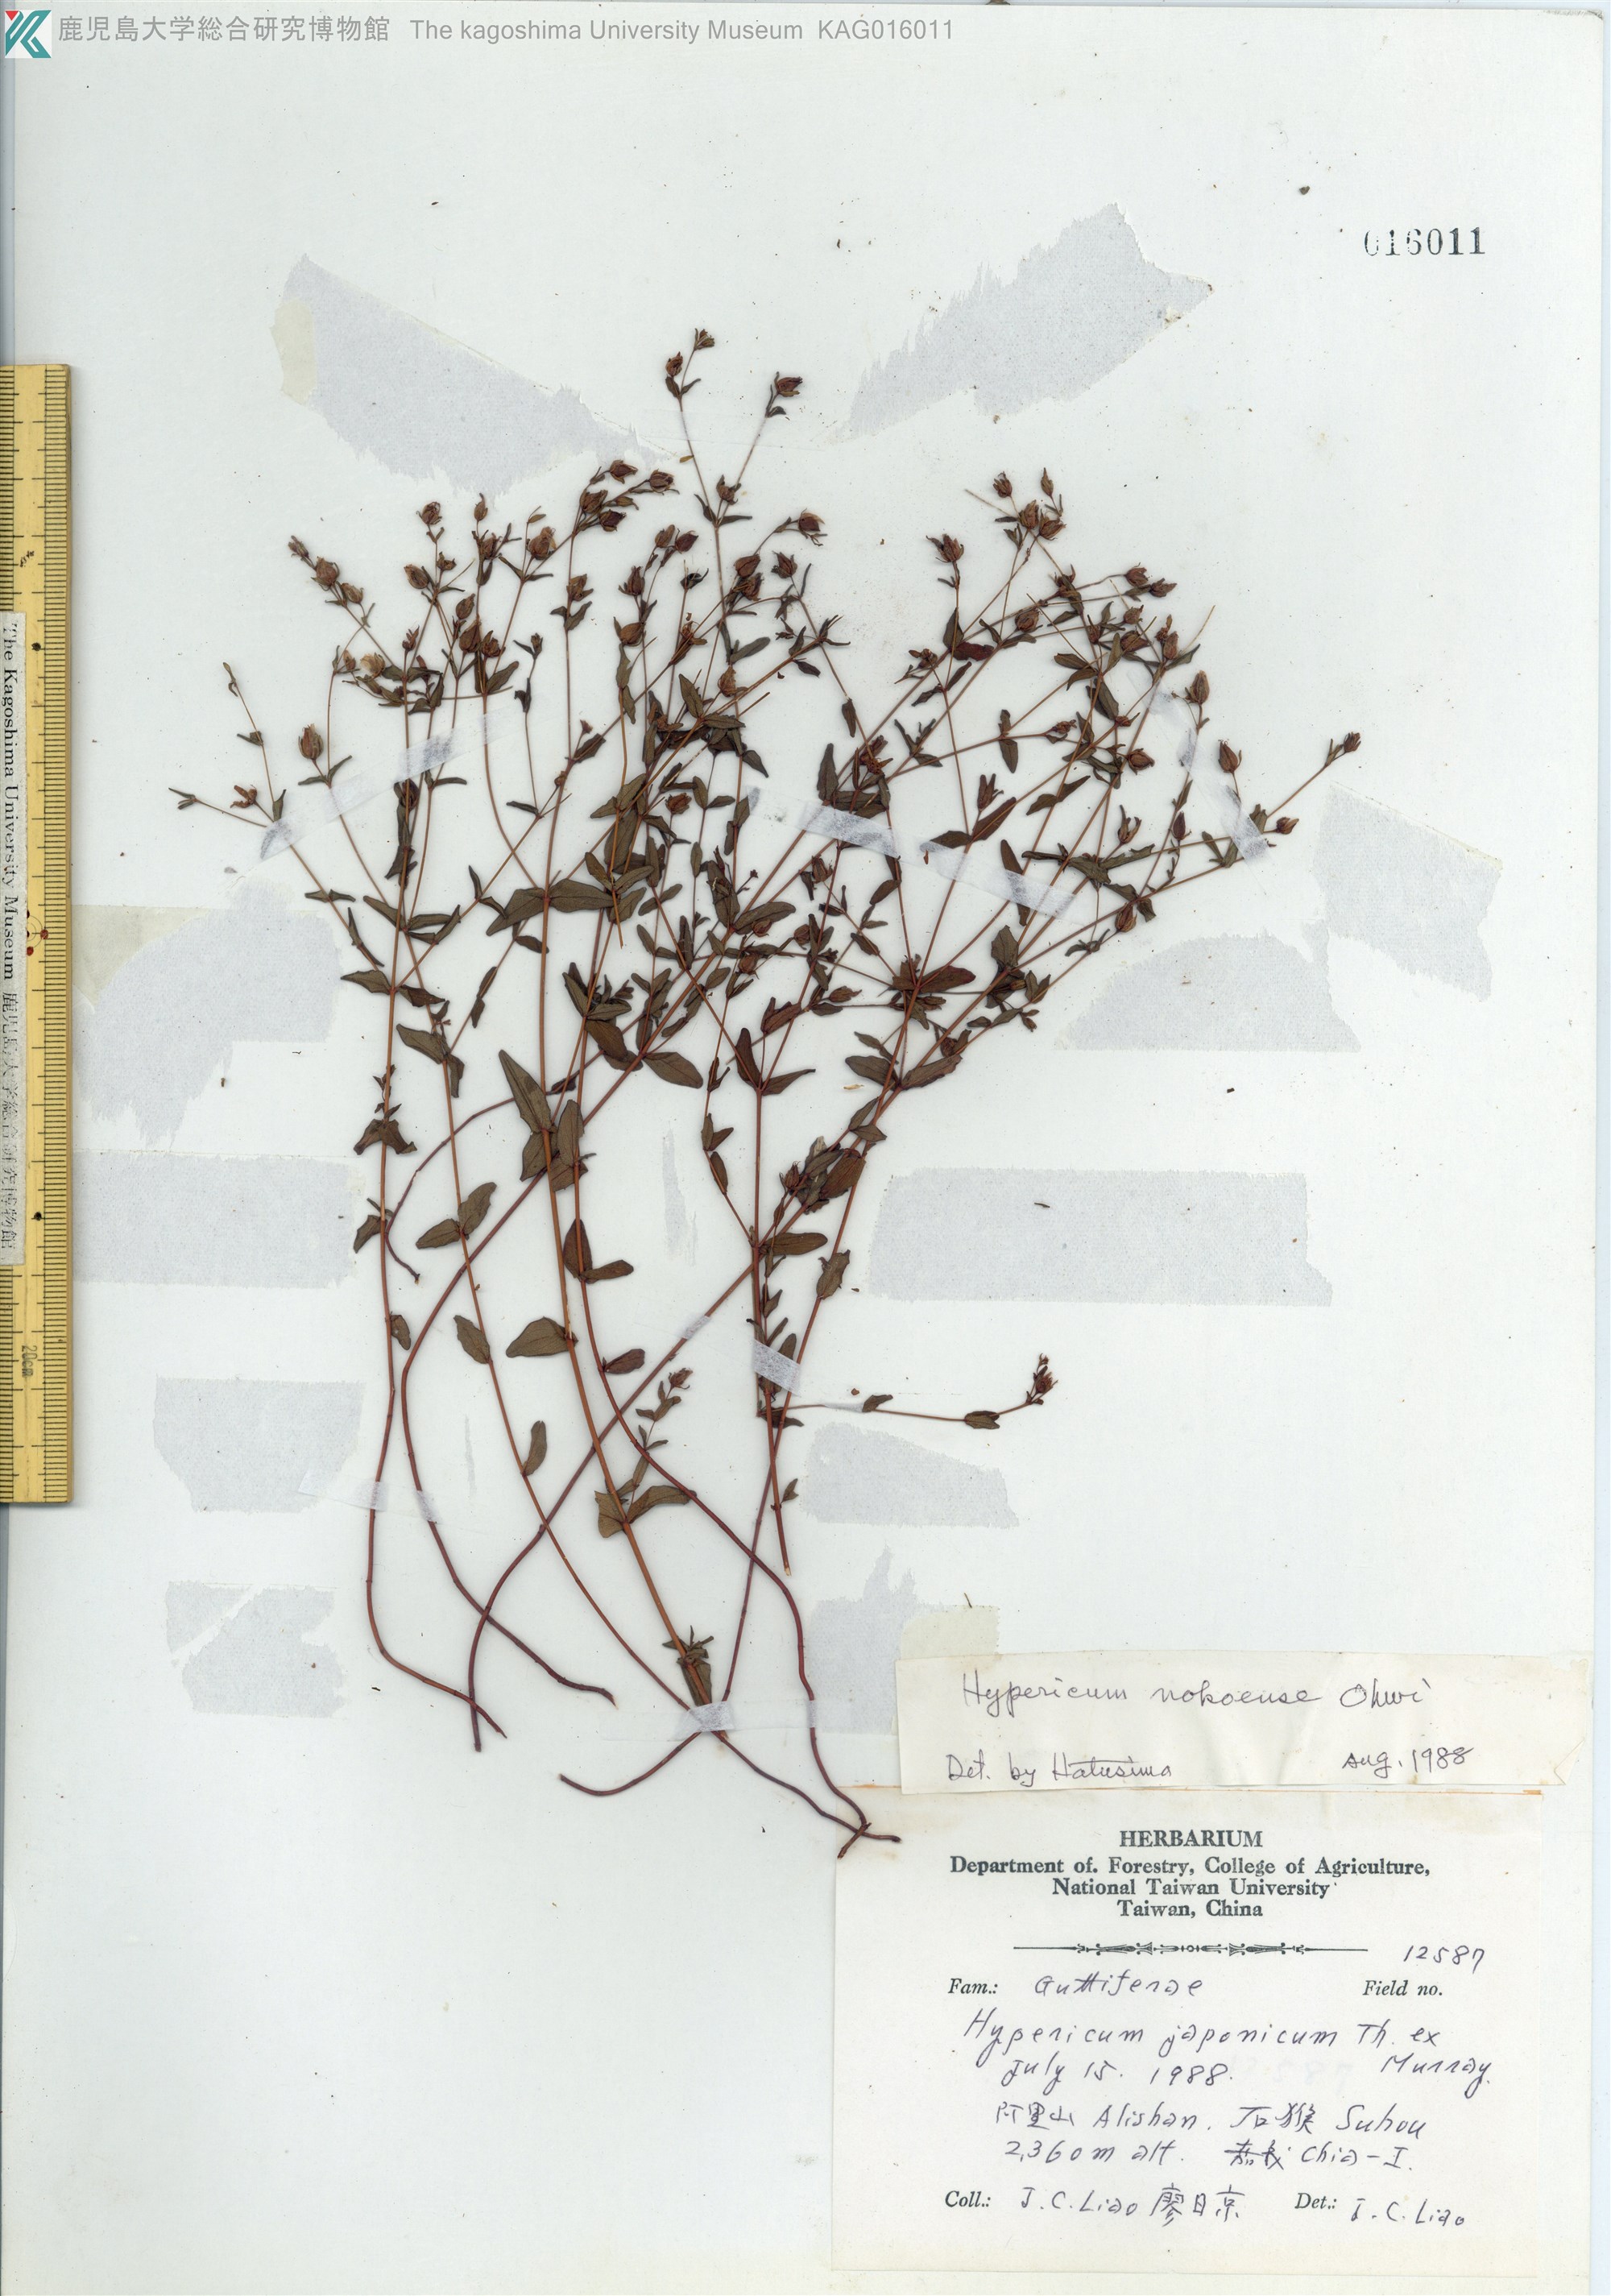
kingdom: Plantae
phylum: Tracheophyta
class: Magnoliopsida
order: Malpighiales
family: Hypericaceae
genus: Hypericum
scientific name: Hypericum japonicum
